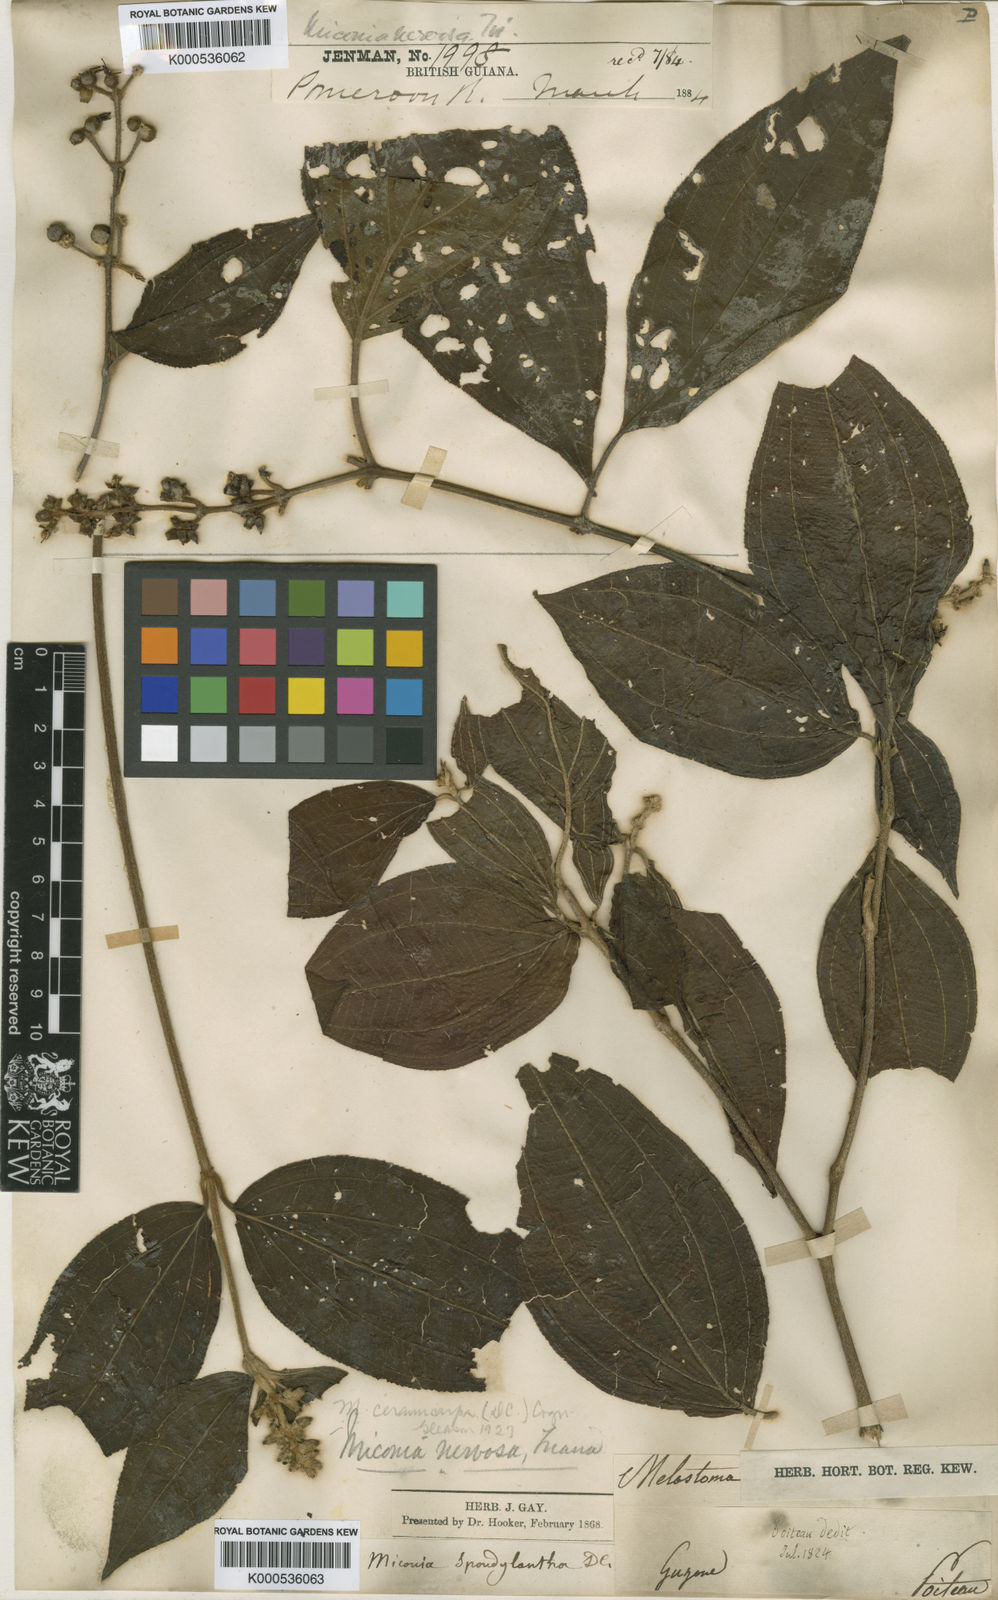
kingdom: Plantae
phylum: Tracheophyta
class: Magnoliopsida
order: Myrtales
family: Melastomataceae
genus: Miconia
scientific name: Miconia ceramicarpa
